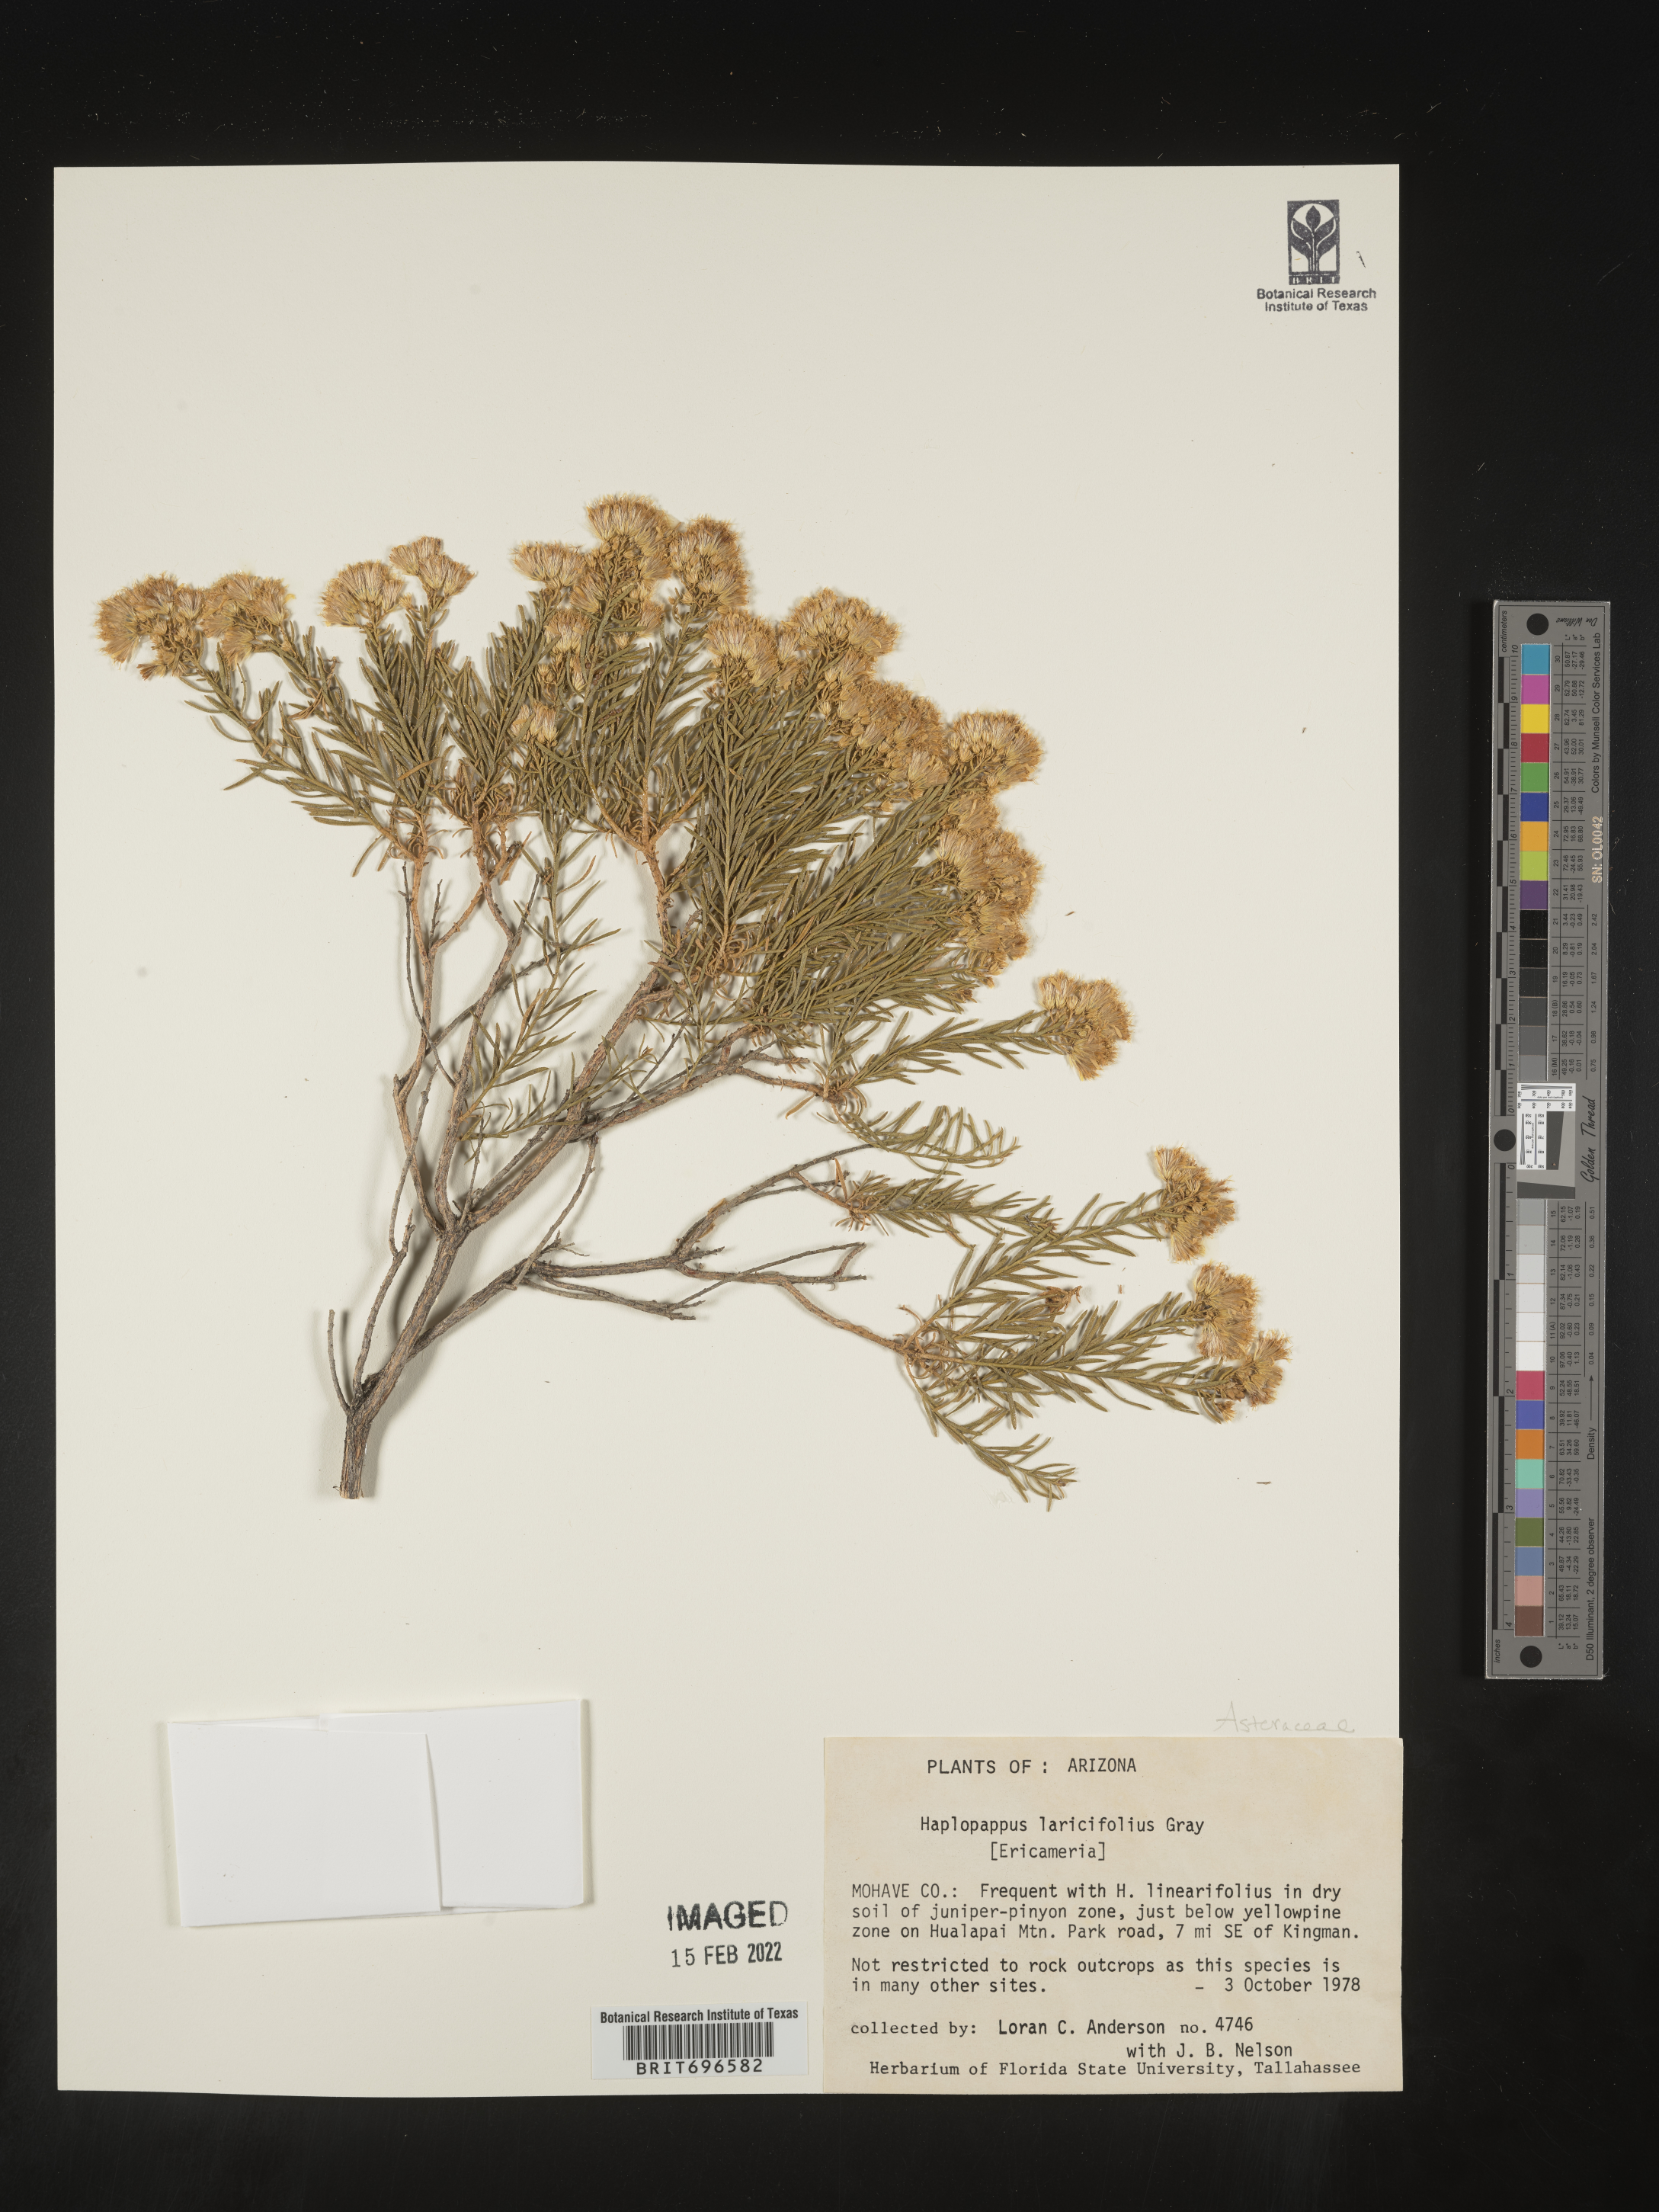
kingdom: Plantae
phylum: Tracheophyta
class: Magnoliopsida
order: Asterales
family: Asteraceae
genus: Ericameria
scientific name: Ericameria laricifolia
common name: Turpentine-bush
